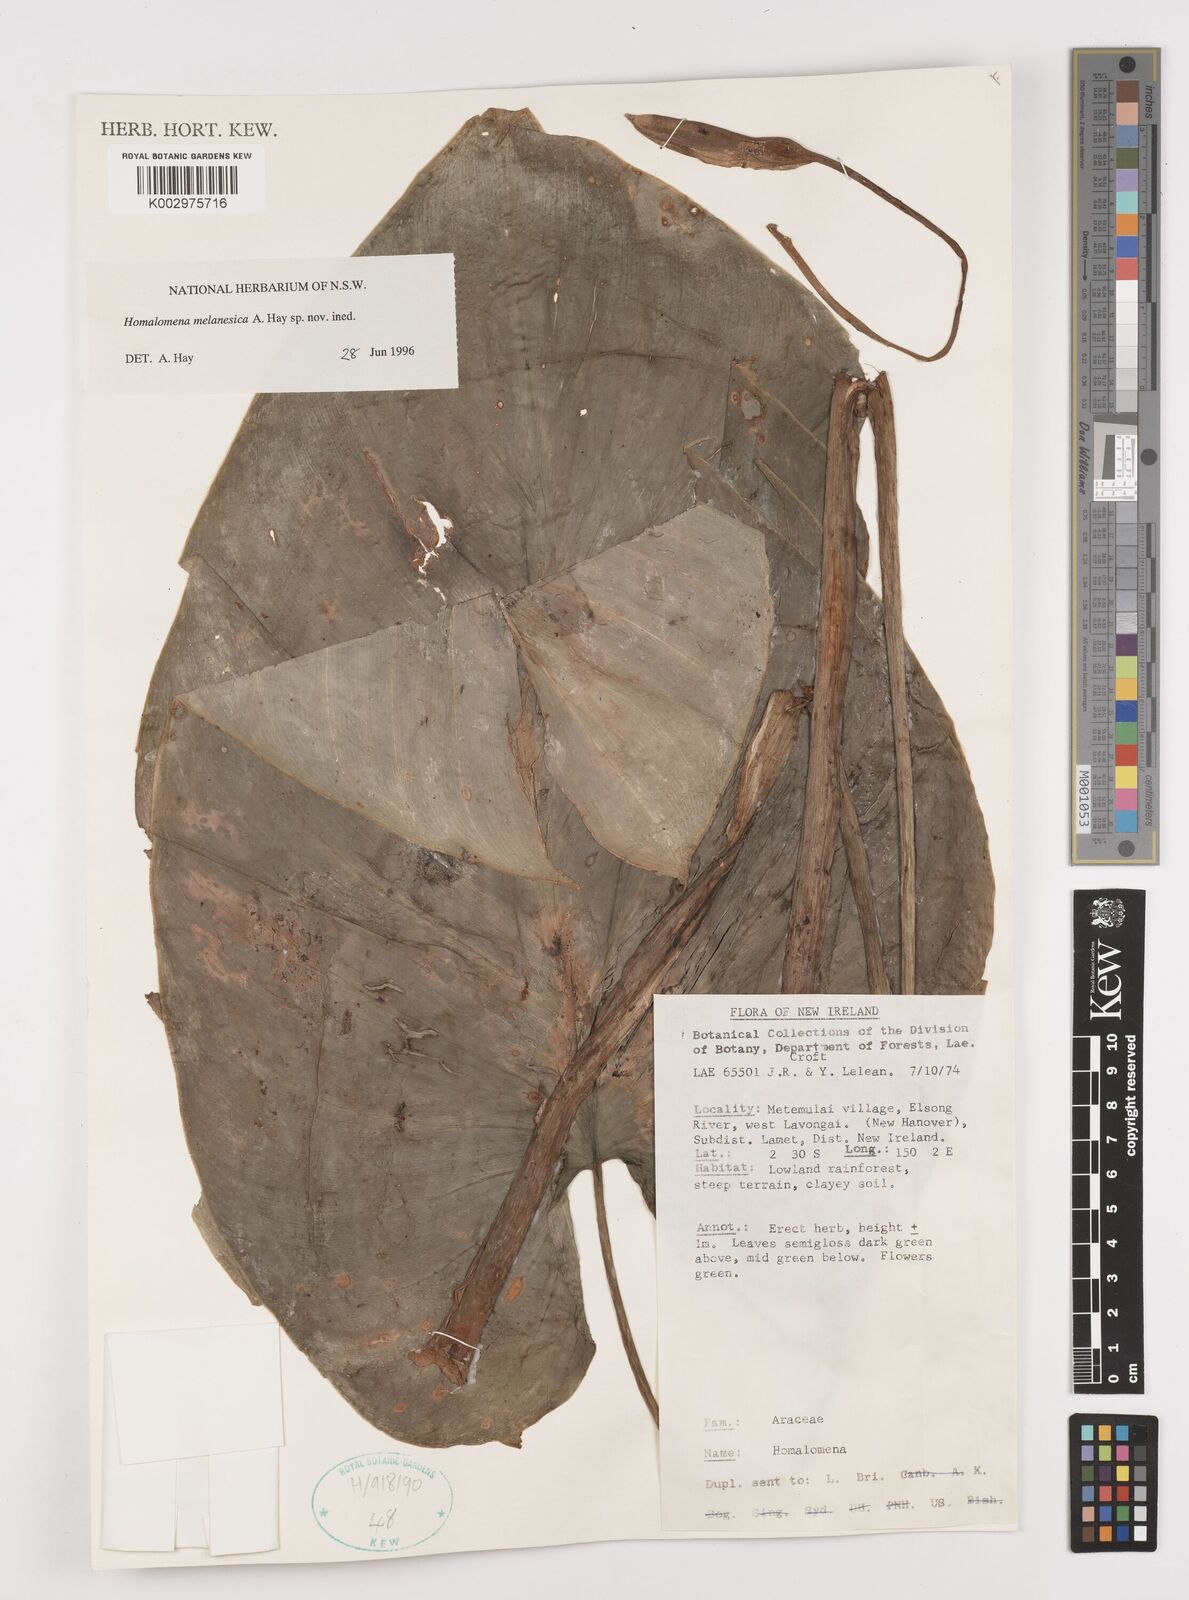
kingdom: Plantae
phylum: Tracheophyta
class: Liliopsida
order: Alismatales
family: Araceae
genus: Homalomena
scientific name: Homalomena melanesica
